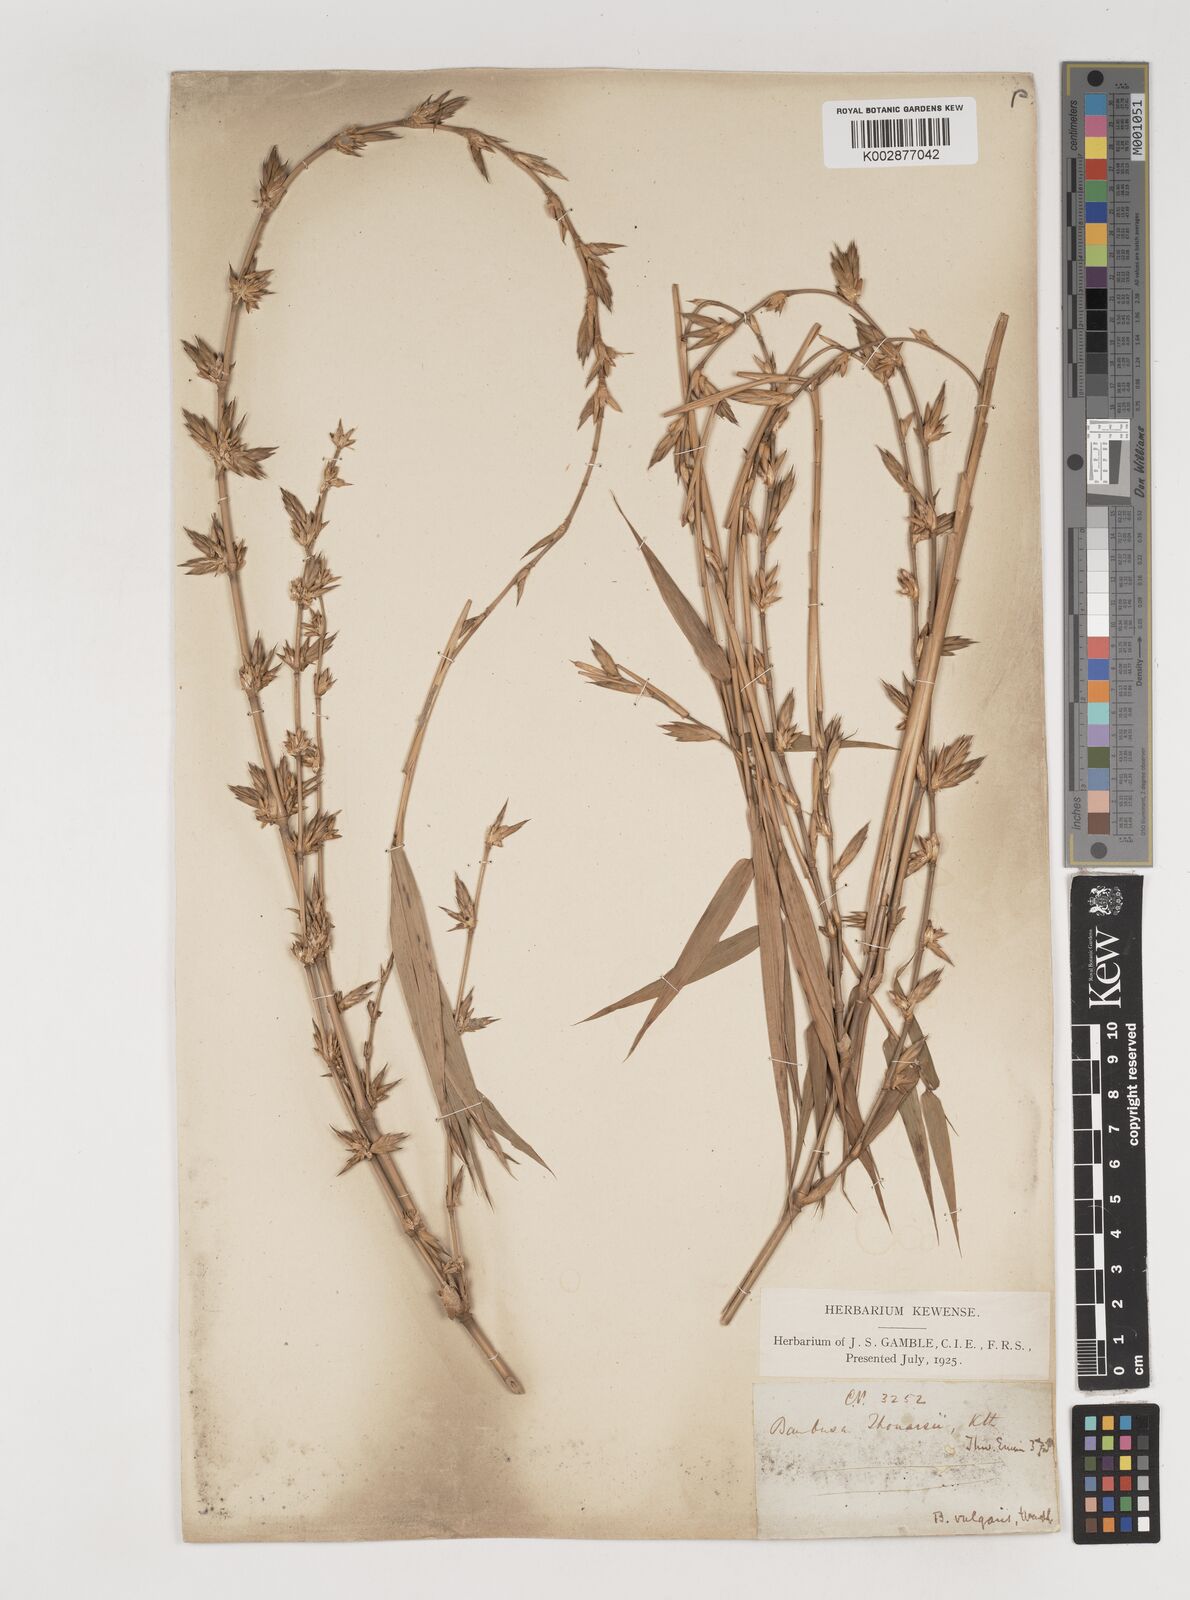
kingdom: Plantae
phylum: Tracheophyta
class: Liliopsida
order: Poales
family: Poaceae
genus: Bambusa
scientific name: Bambusa vulgaris
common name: Common bamboo
